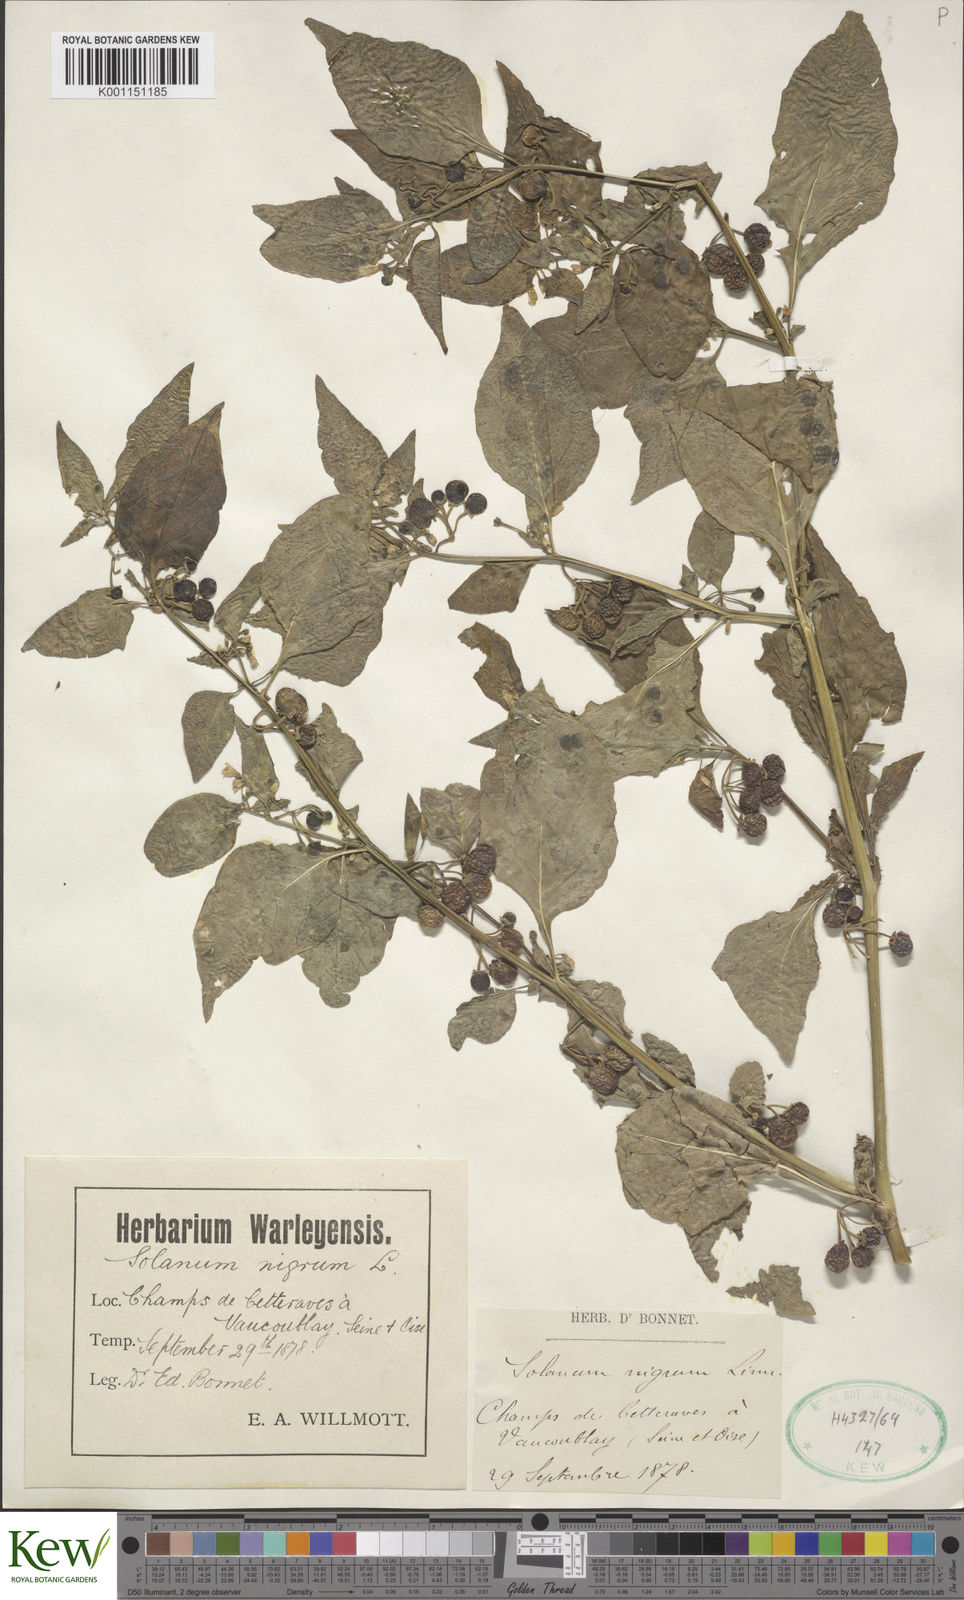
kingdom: Plantae
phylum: Tracheophyta
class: Magnoliopsida
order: Solanales
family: Solanaceae
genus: Solanum
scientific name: Solanum alatum
